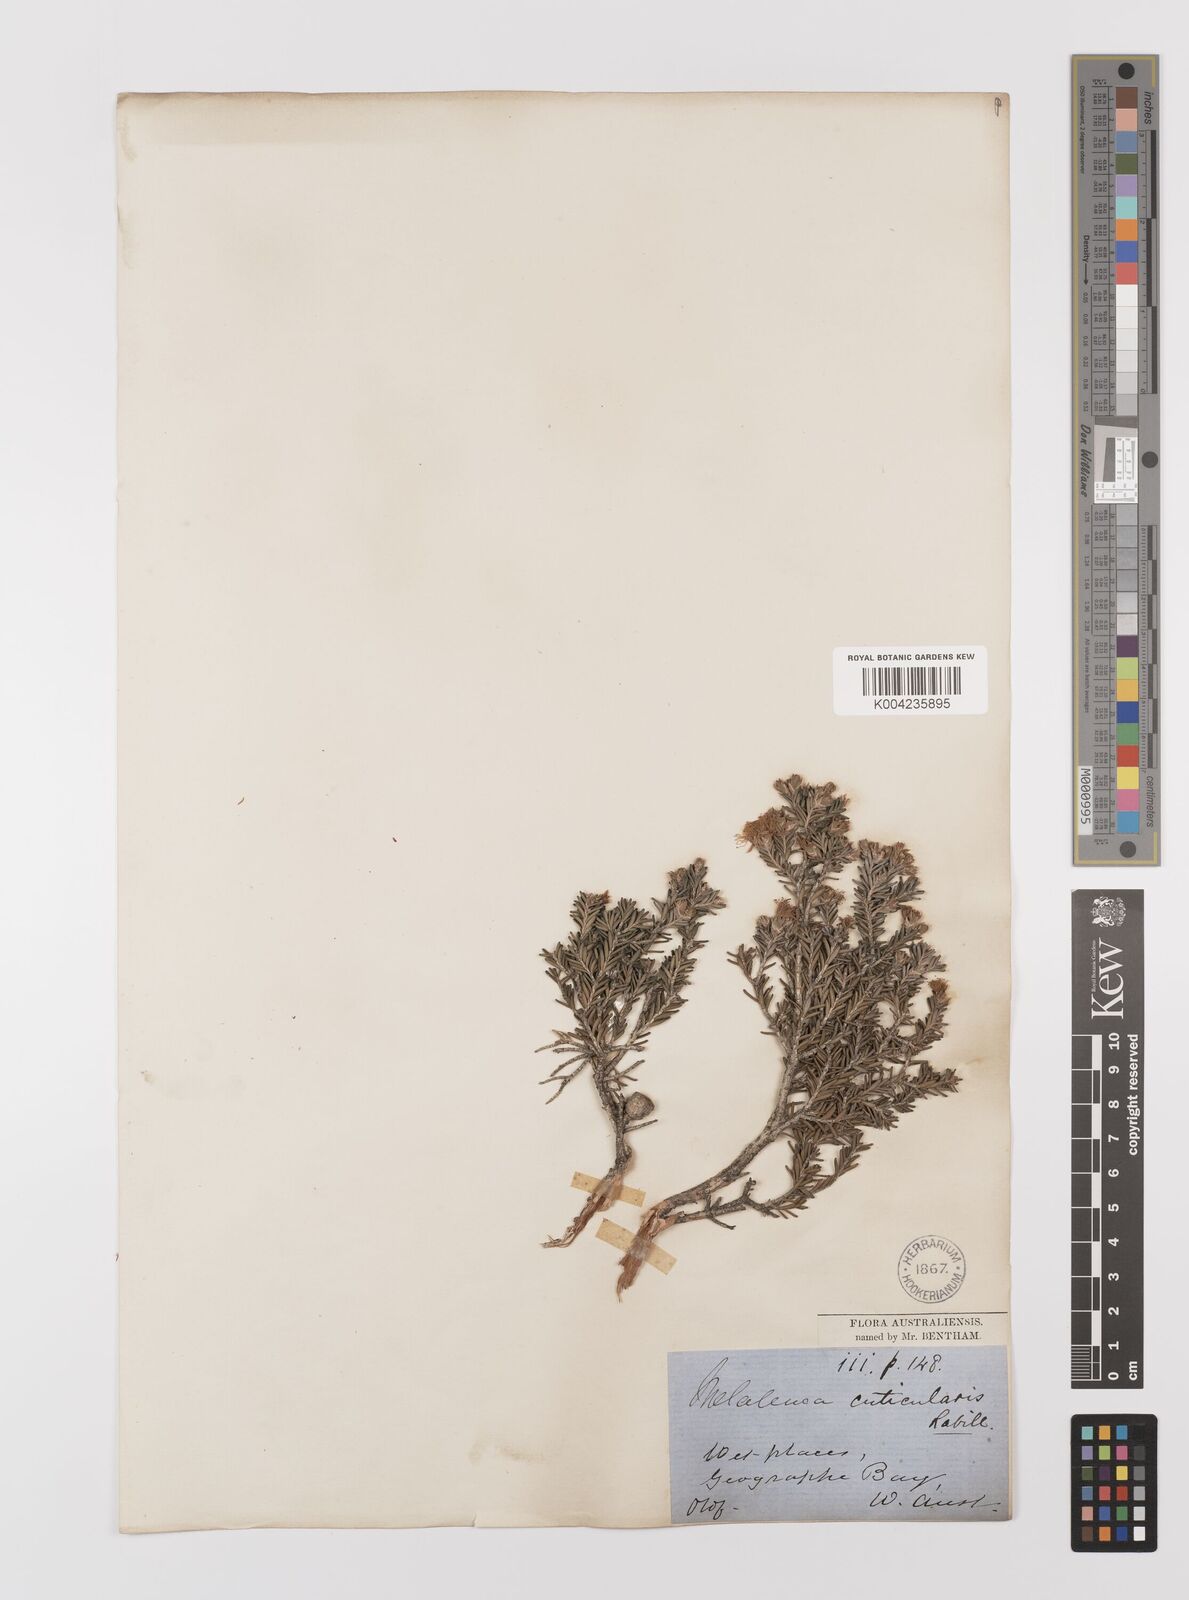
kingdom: Plantae
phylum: Tracheophyta
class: Magnoliopsida
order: Myrtales
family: Myrtaceae
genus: Melaleuca
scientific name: Melaleuca cuticularis
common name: Saltwater paperbark
